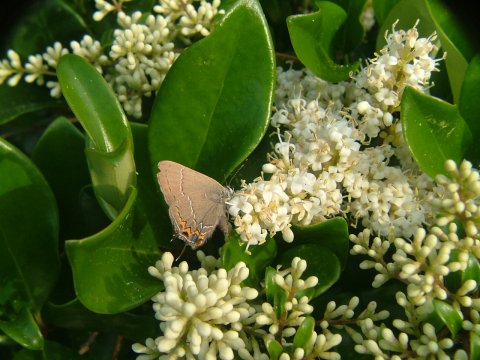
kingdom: Animalia
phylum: Arthropoda
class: Insecta
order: Lepidoptera
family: Lycaenidae
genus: Fixsenia
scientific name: Fixsenia favonius
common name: Oak Hairstreak
